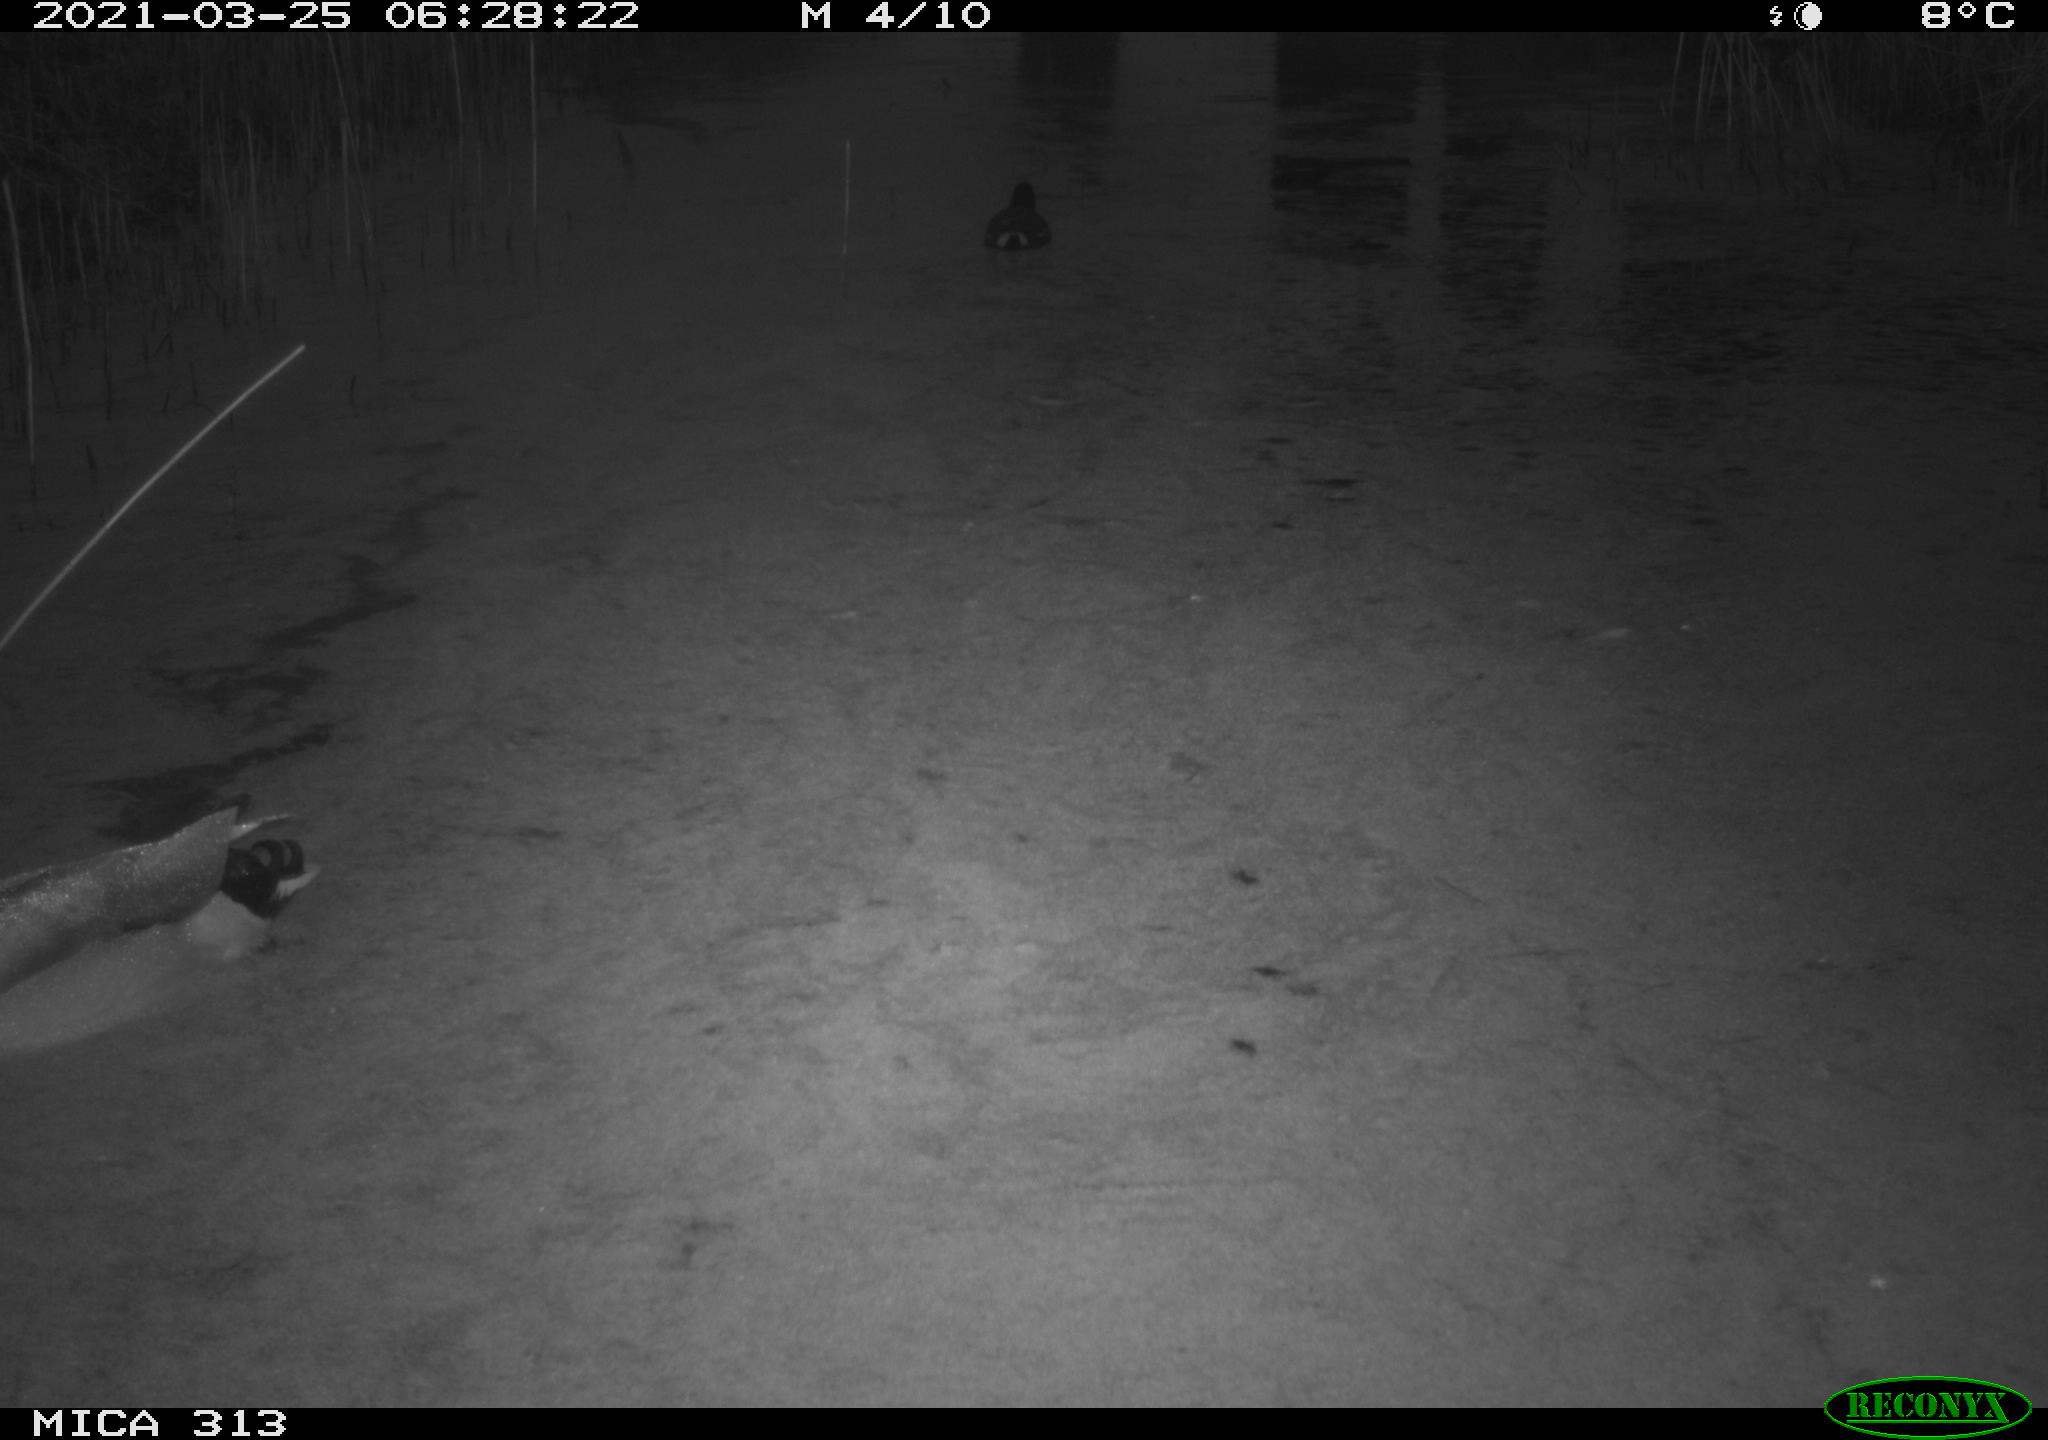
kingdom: Animalia
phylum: Chordata
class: Aves
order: Anseriformes
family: Anatidae
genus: Anas
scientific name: Anas platyrhynchos
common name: Mallard
